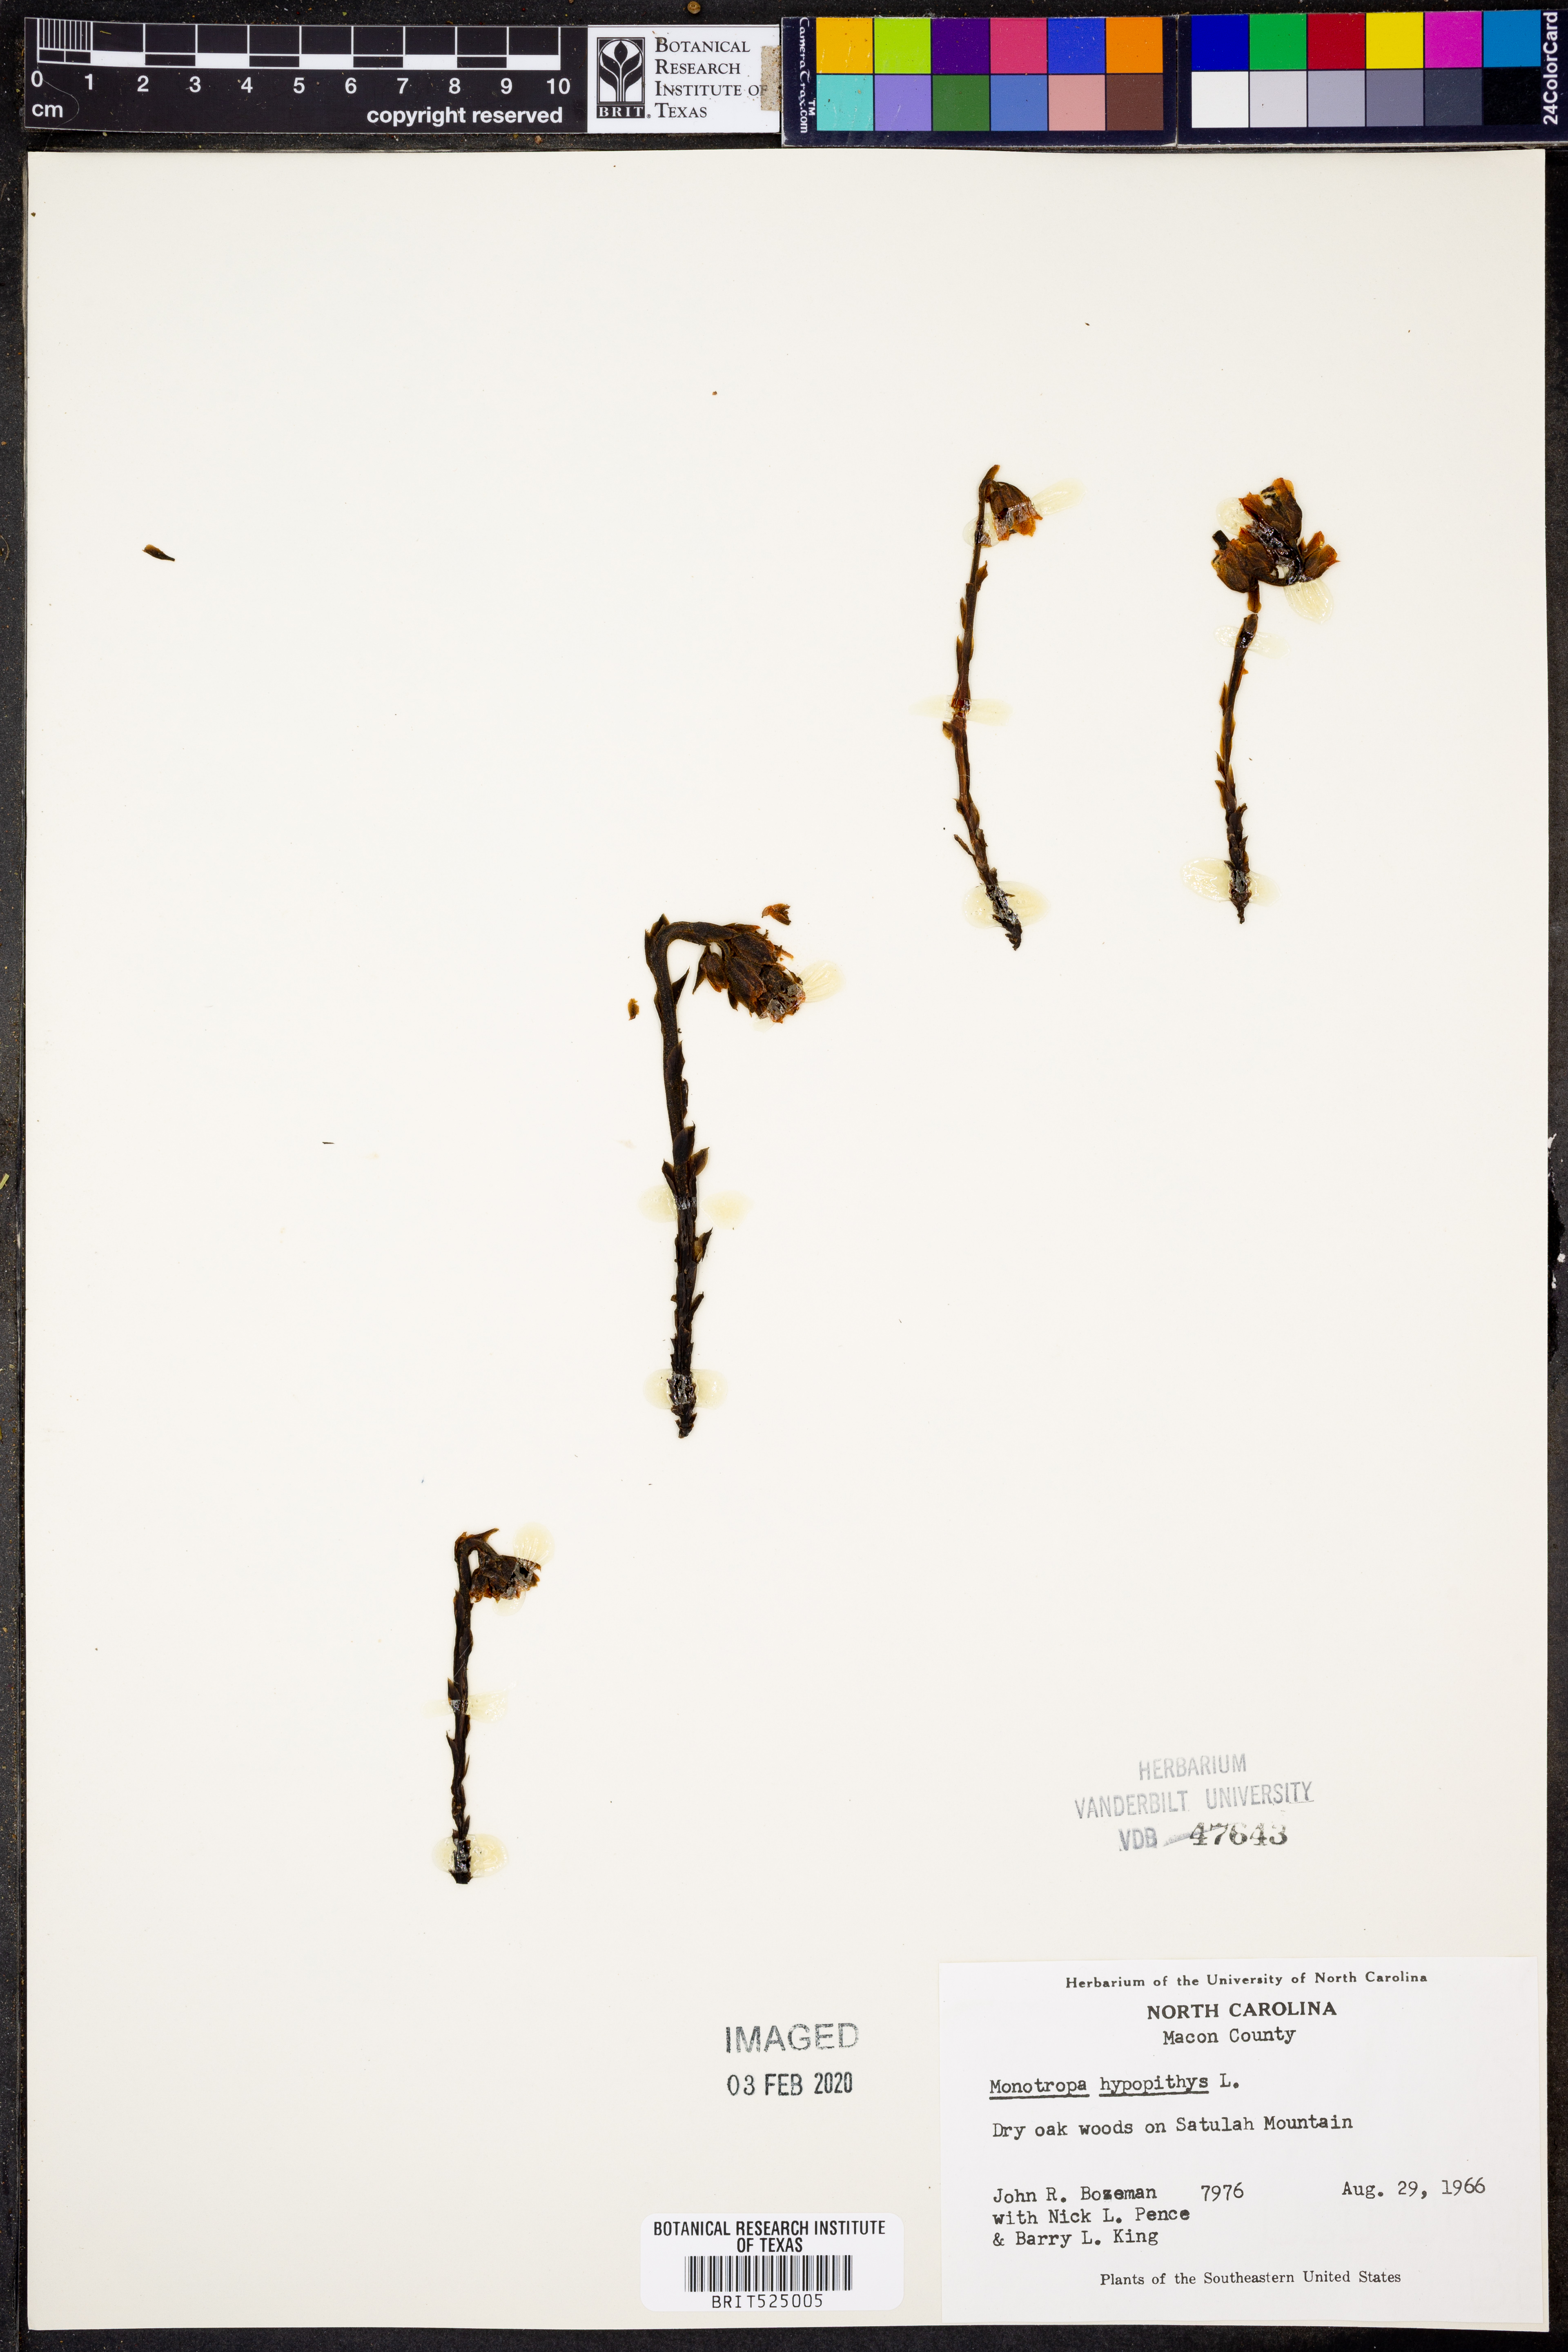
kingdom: Plantae
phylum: Tracheophyta
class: Magnoliopsida
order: Ericales
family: Ericaceae
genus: Hypopitys
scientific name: Hypopitys monotropa
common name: Yellow bird's-nest
